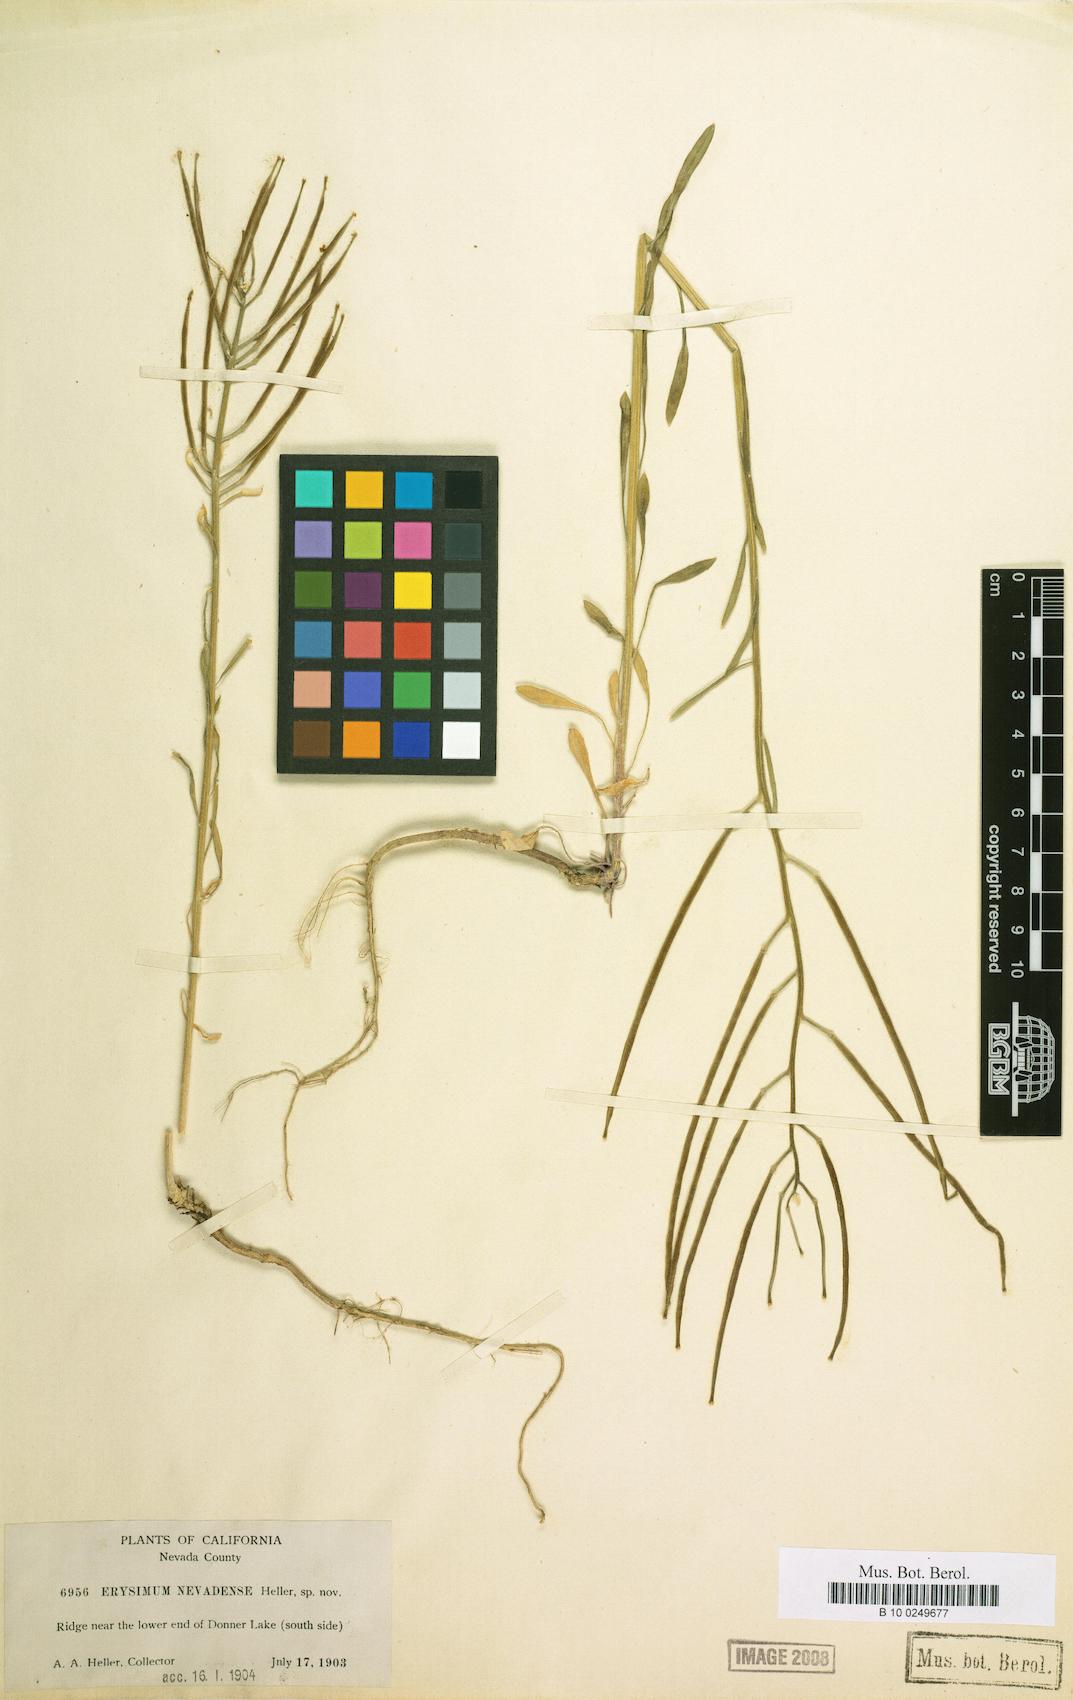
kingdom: Plantae
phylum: Tracheophyta
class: Magnoliopsida
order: Brassicales
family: Brassicaceae
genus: Erysimum
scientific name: Erysimum perenne
